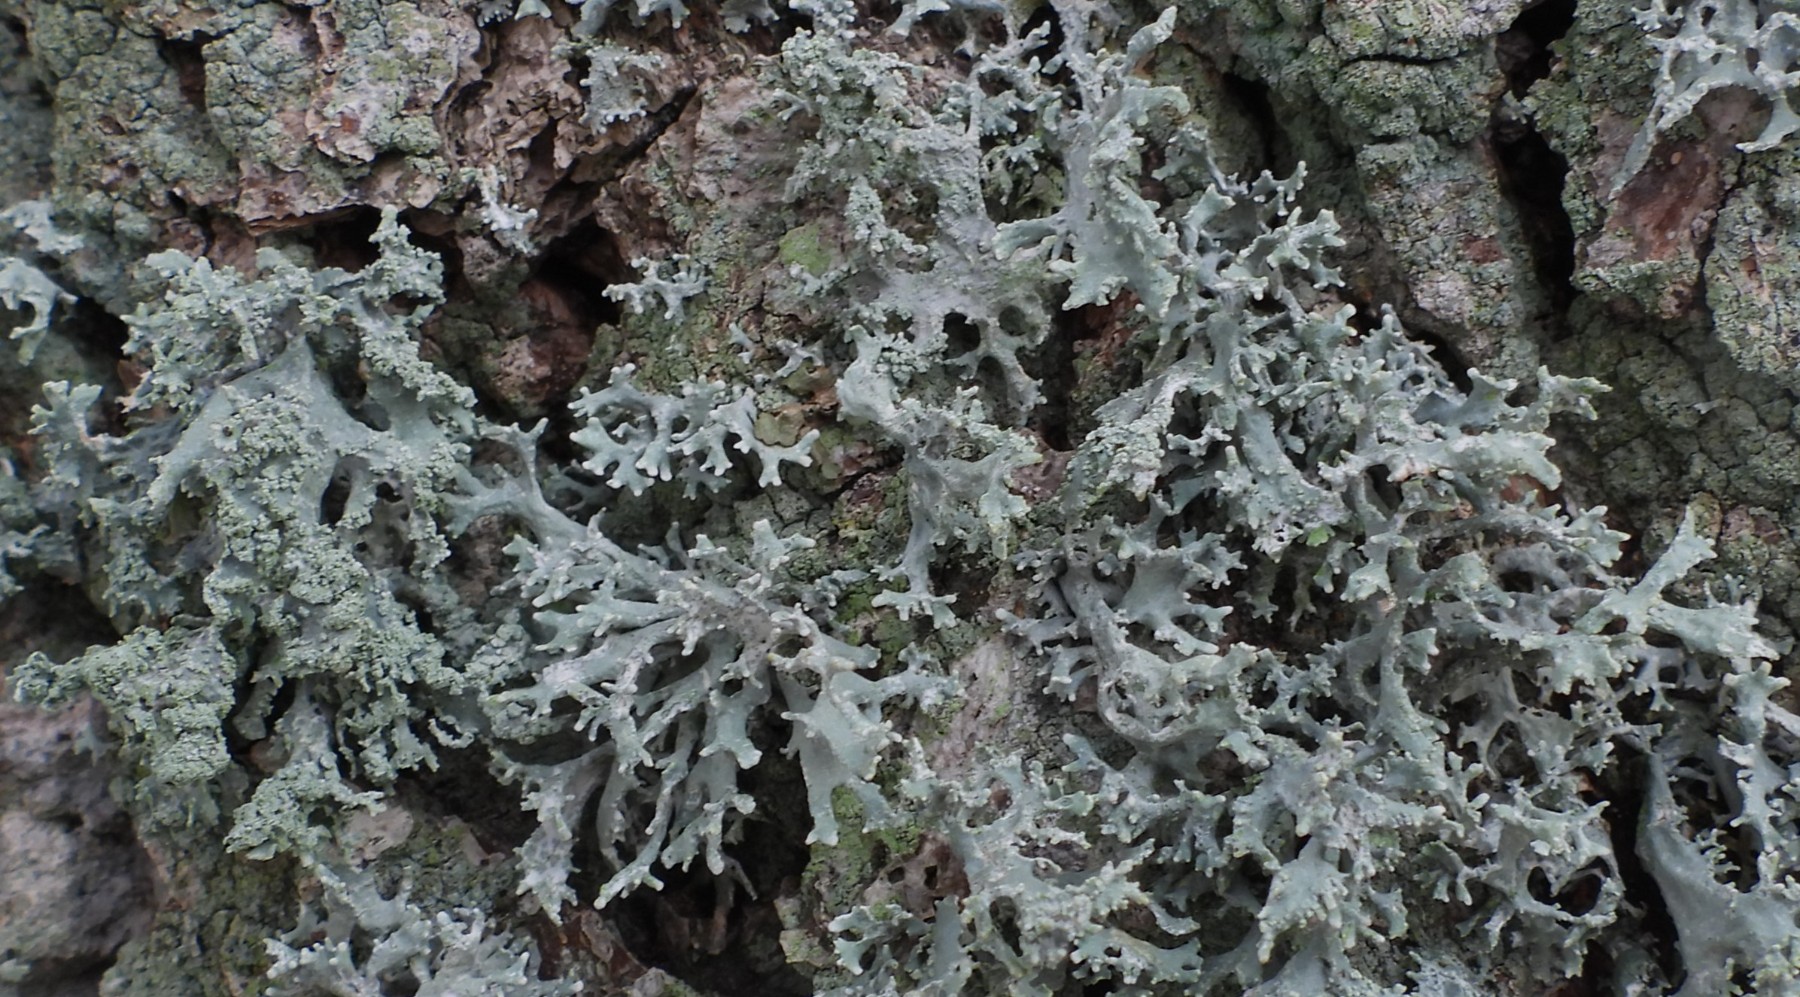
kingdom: Fungi
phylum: Ascomycota
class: Lecanoromycetes
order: Lecanorales
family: Parmeliaceae
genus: Evernia
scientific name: Evernia prunastri
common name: almindelig slåenlav
